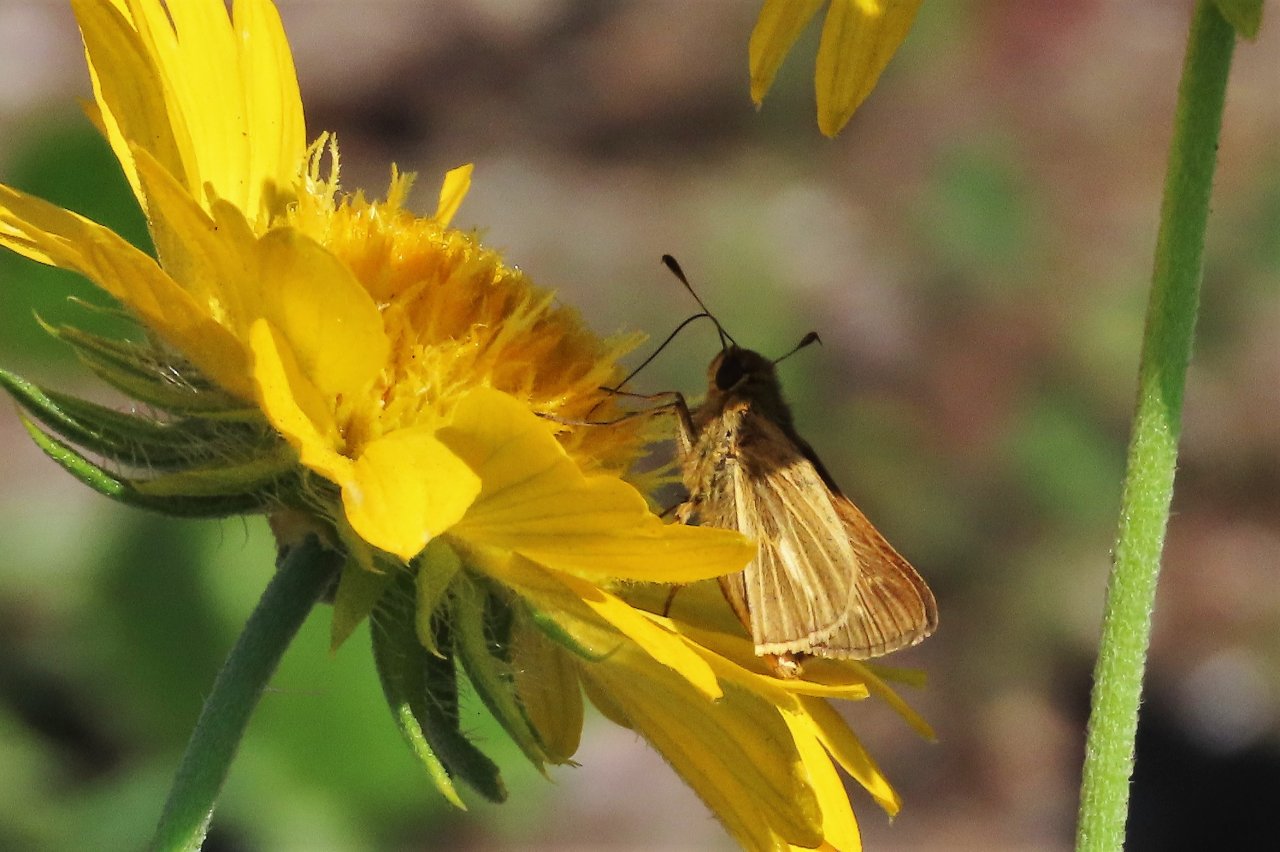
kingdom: Animalia
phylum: Arthropoda
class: Insecta
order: Lepidoptera
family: Hesperiidae
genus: Panoquina
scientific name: Panoquina panoquin
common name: Salt Marsh Skipper
